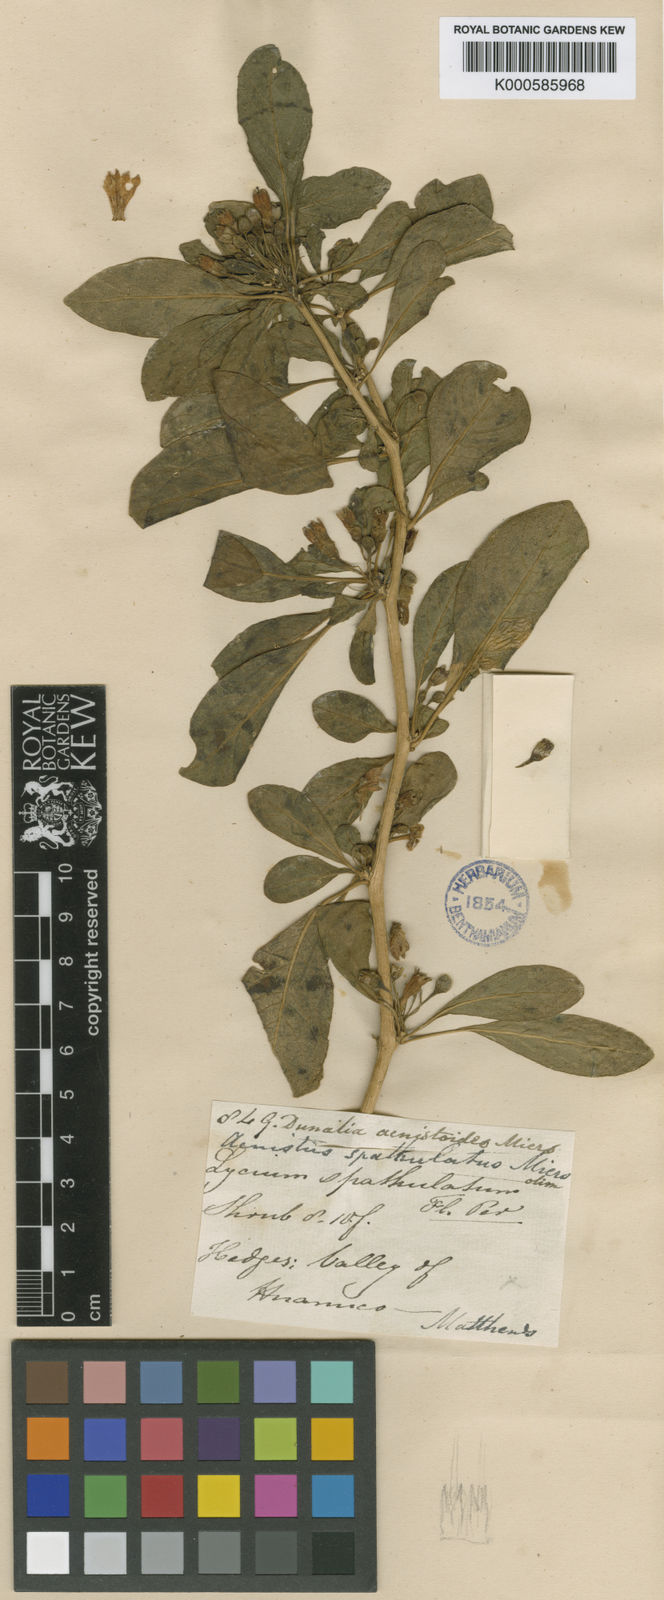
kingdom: Plantae
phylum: Tracheophyta
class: Magnoliopsida
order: Solanales
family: Solanaceae
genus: Dunalia
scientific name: Dunalia
